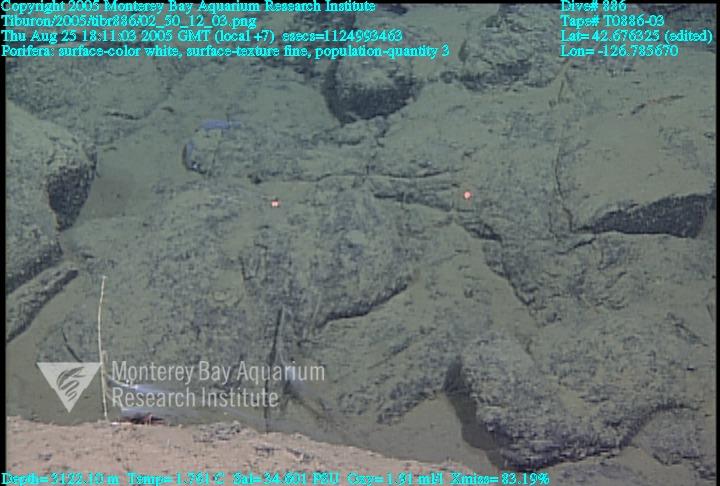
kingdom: Animalia
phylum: Porifera
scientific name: Porifera
